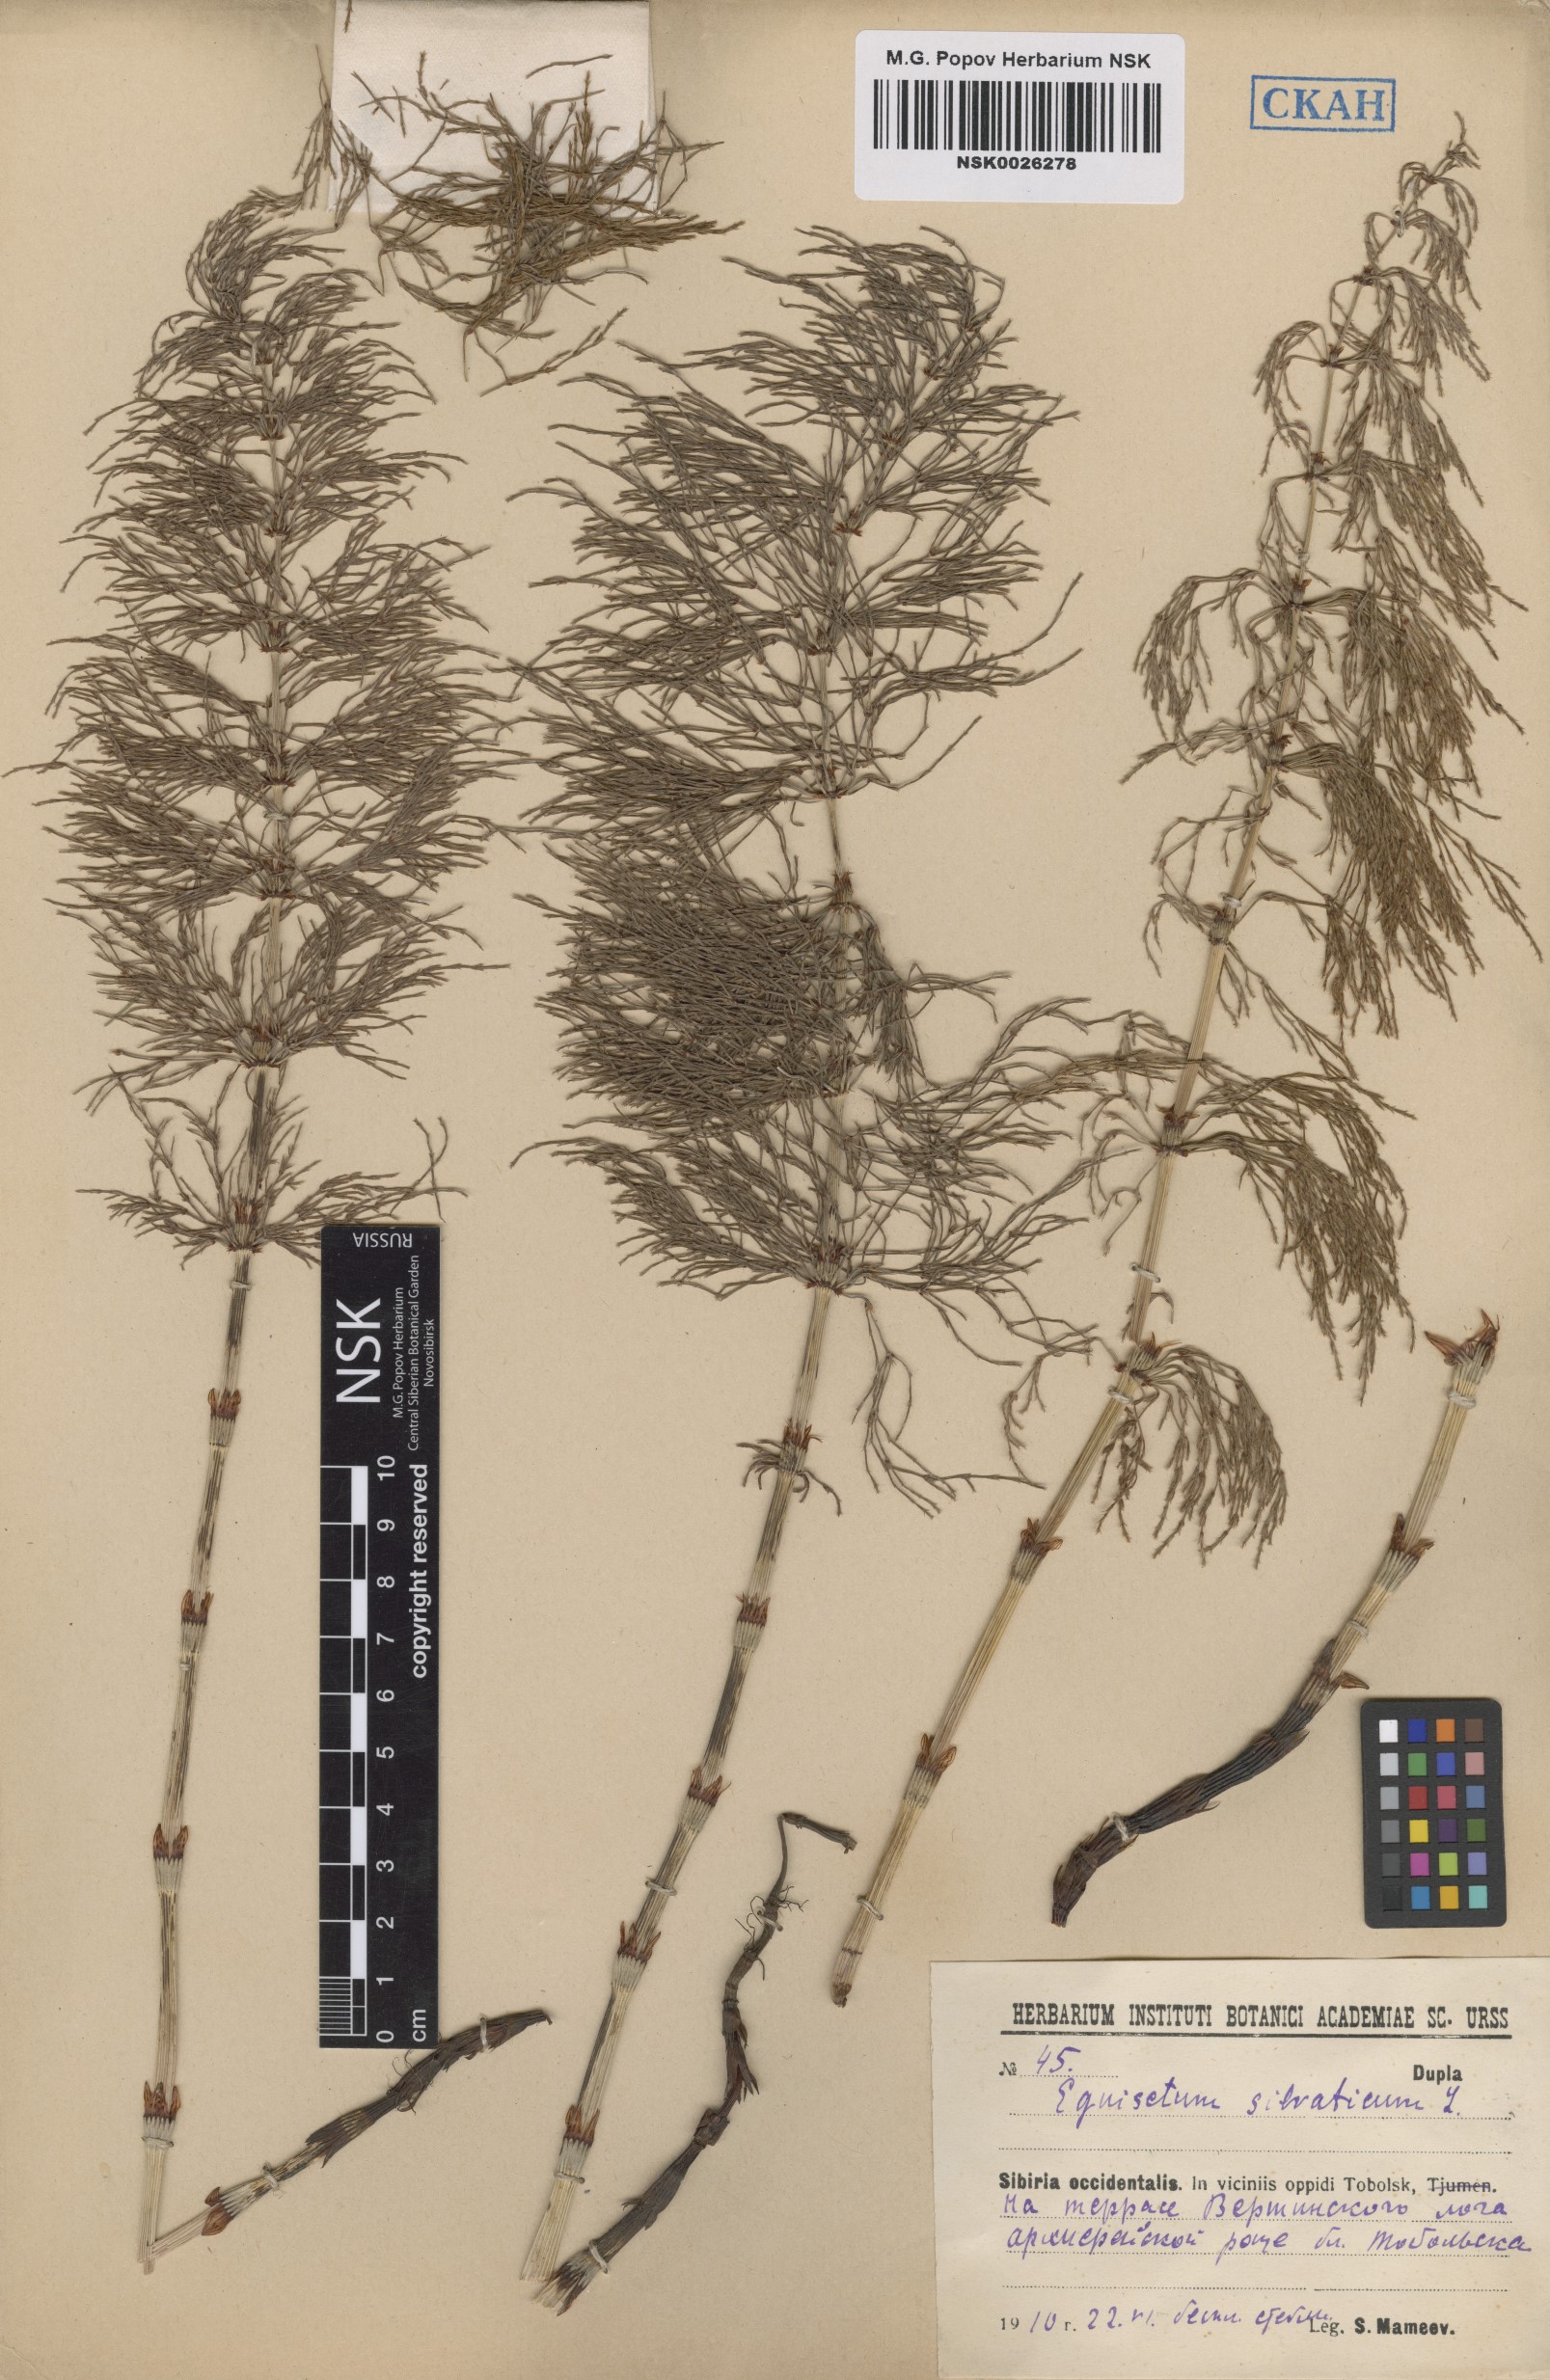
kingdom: Plantae
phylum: Tracheophyta
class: Polypodiopsida
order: Equisetales
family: Equisetaceae
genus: Equisetum
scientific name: Equisetum sylvaticum
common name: Wood horsetail
